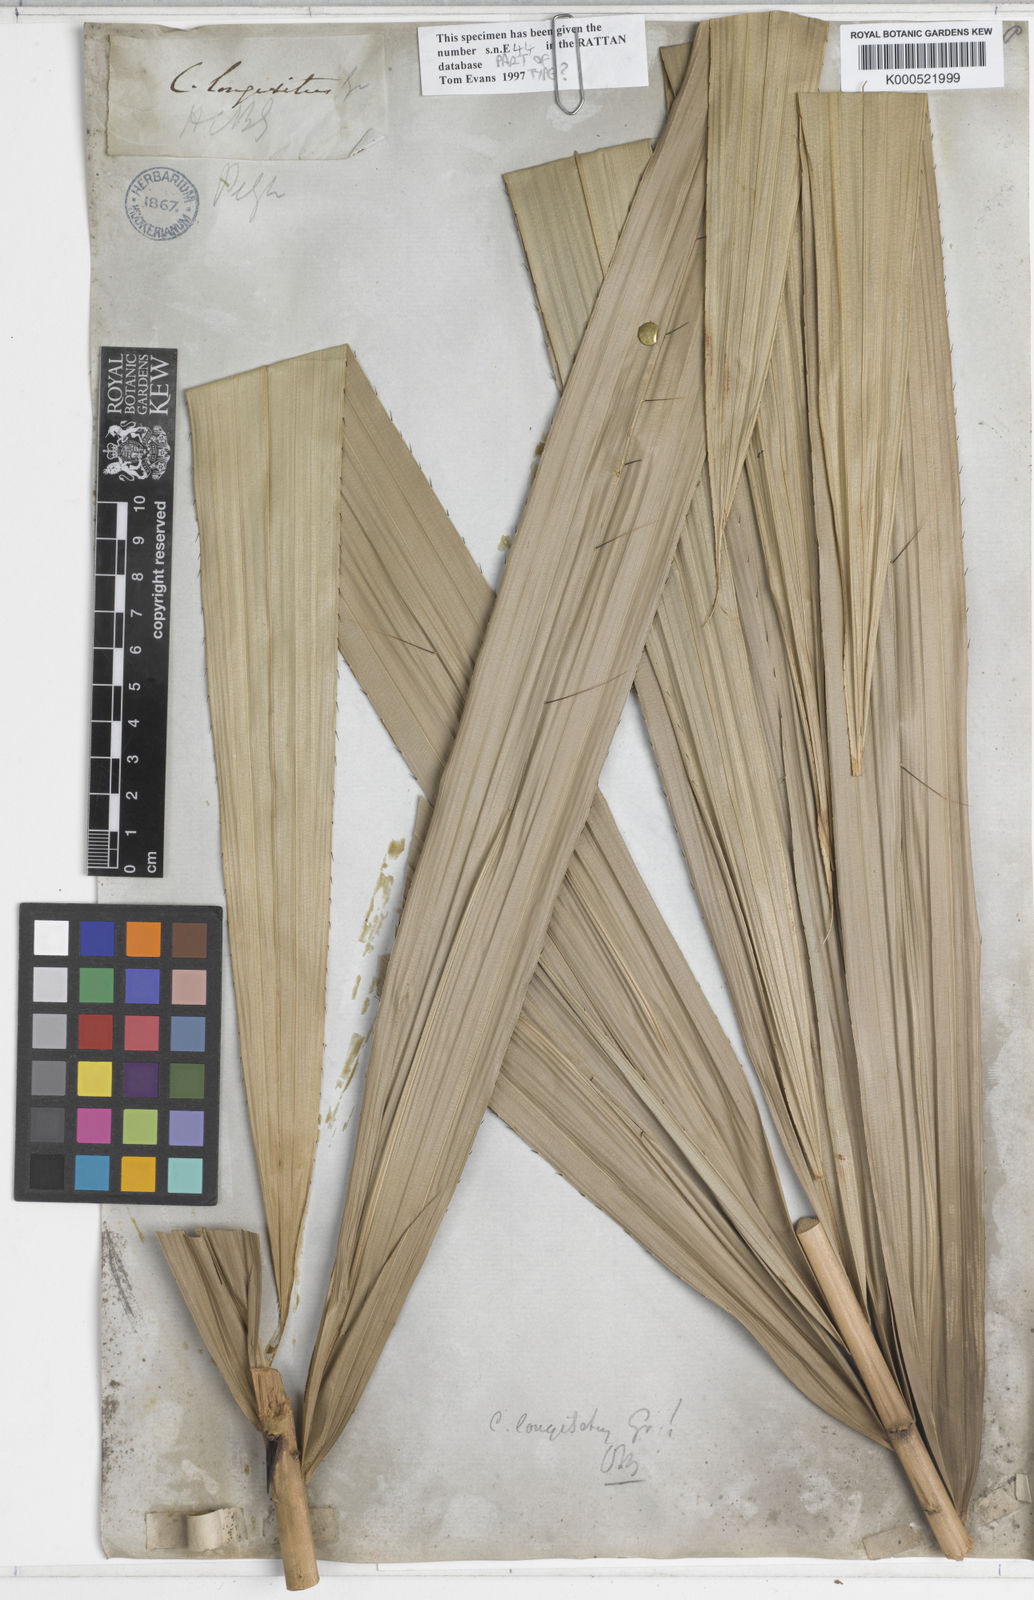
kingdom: Plantae
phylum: Tracheophyta
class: Liliopsida
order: Arecales
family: Arecaceae
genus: Calamus
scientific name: Calamus longisetus
